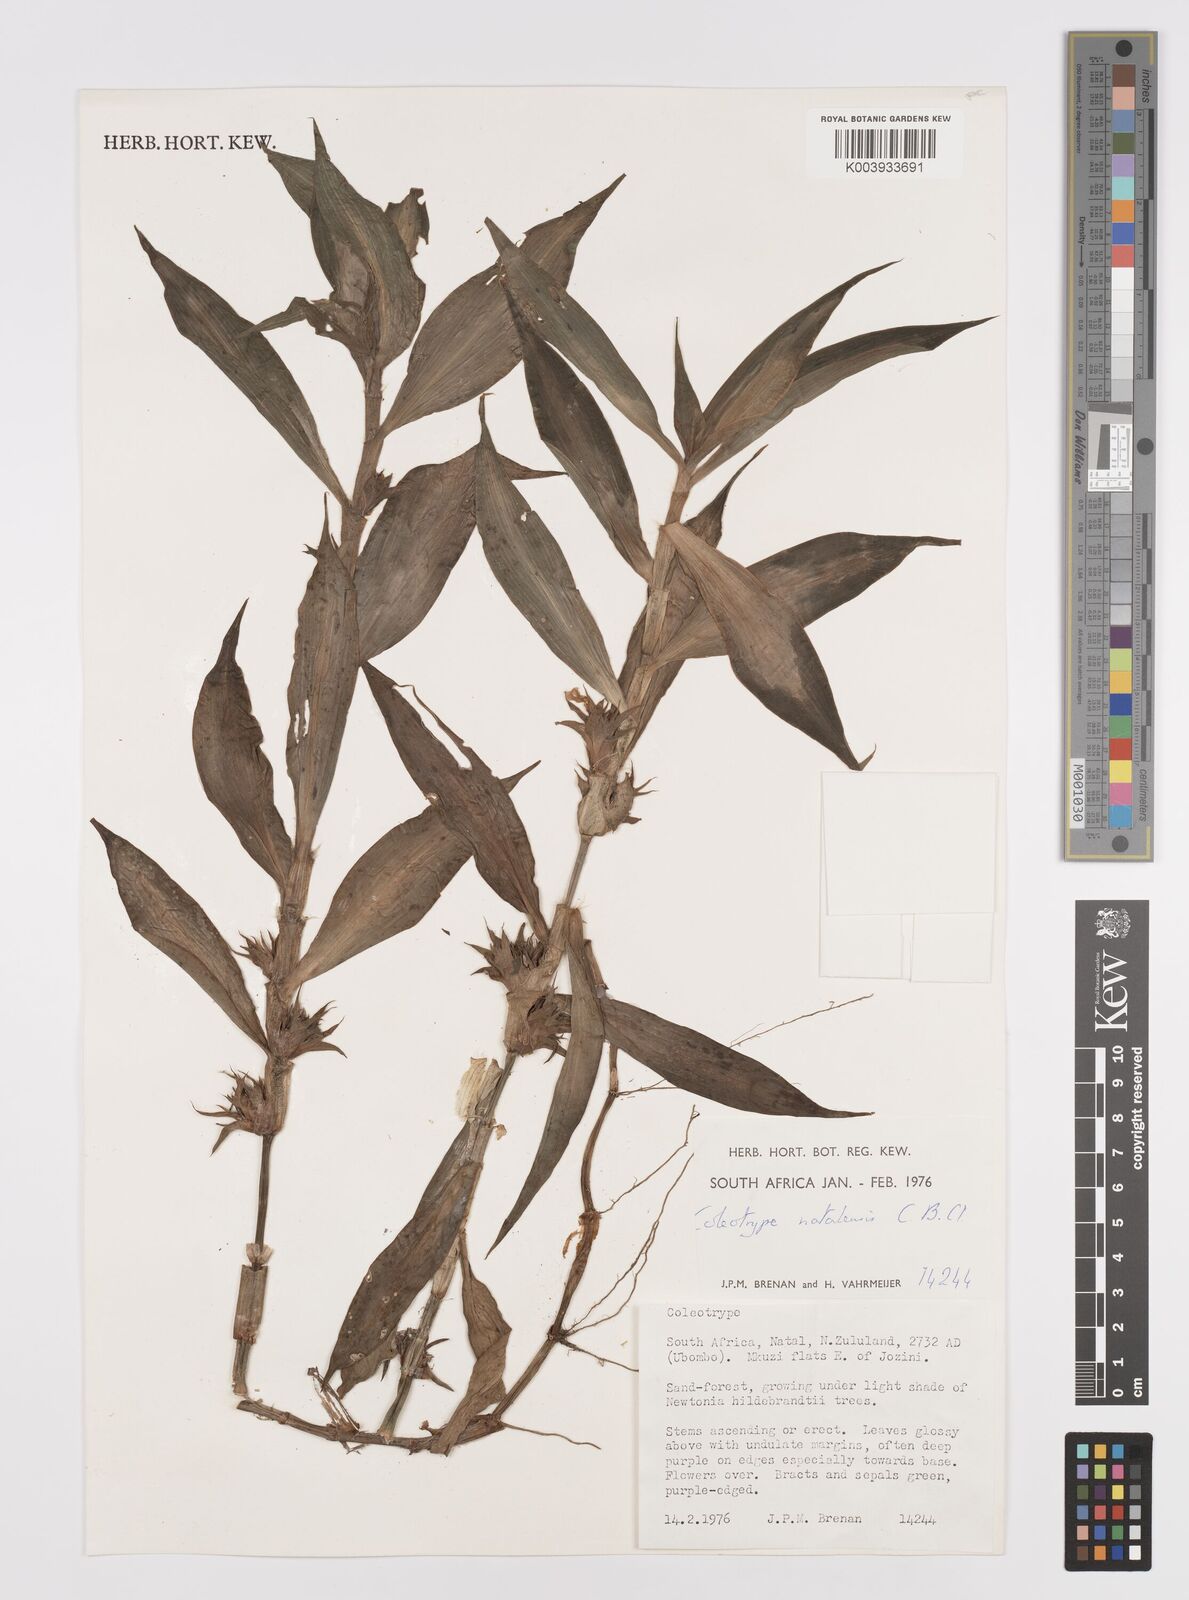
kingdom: Plantae
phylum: Tracheophyta
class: Liliopsida
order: Commelinales
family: Commelinaceae
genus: Coleotrype
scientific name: Coleotrype natalensis
